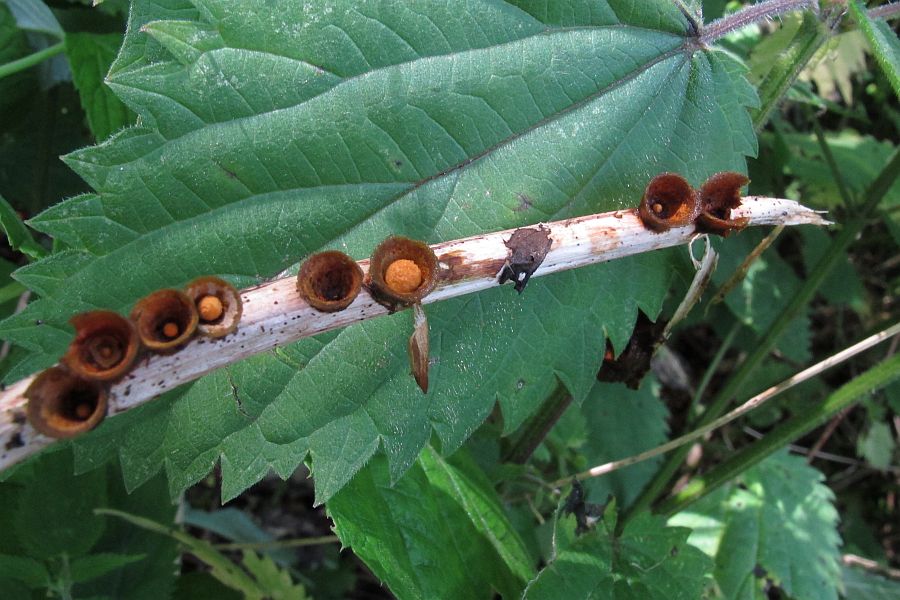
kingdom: Fungi
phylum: Basidiomycota
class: Agaricomycetes
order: Agaricales
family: Nidulariaceae
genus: Crucibulum
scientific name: Crucibulum crucibuliforme
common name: krukkesvamp
